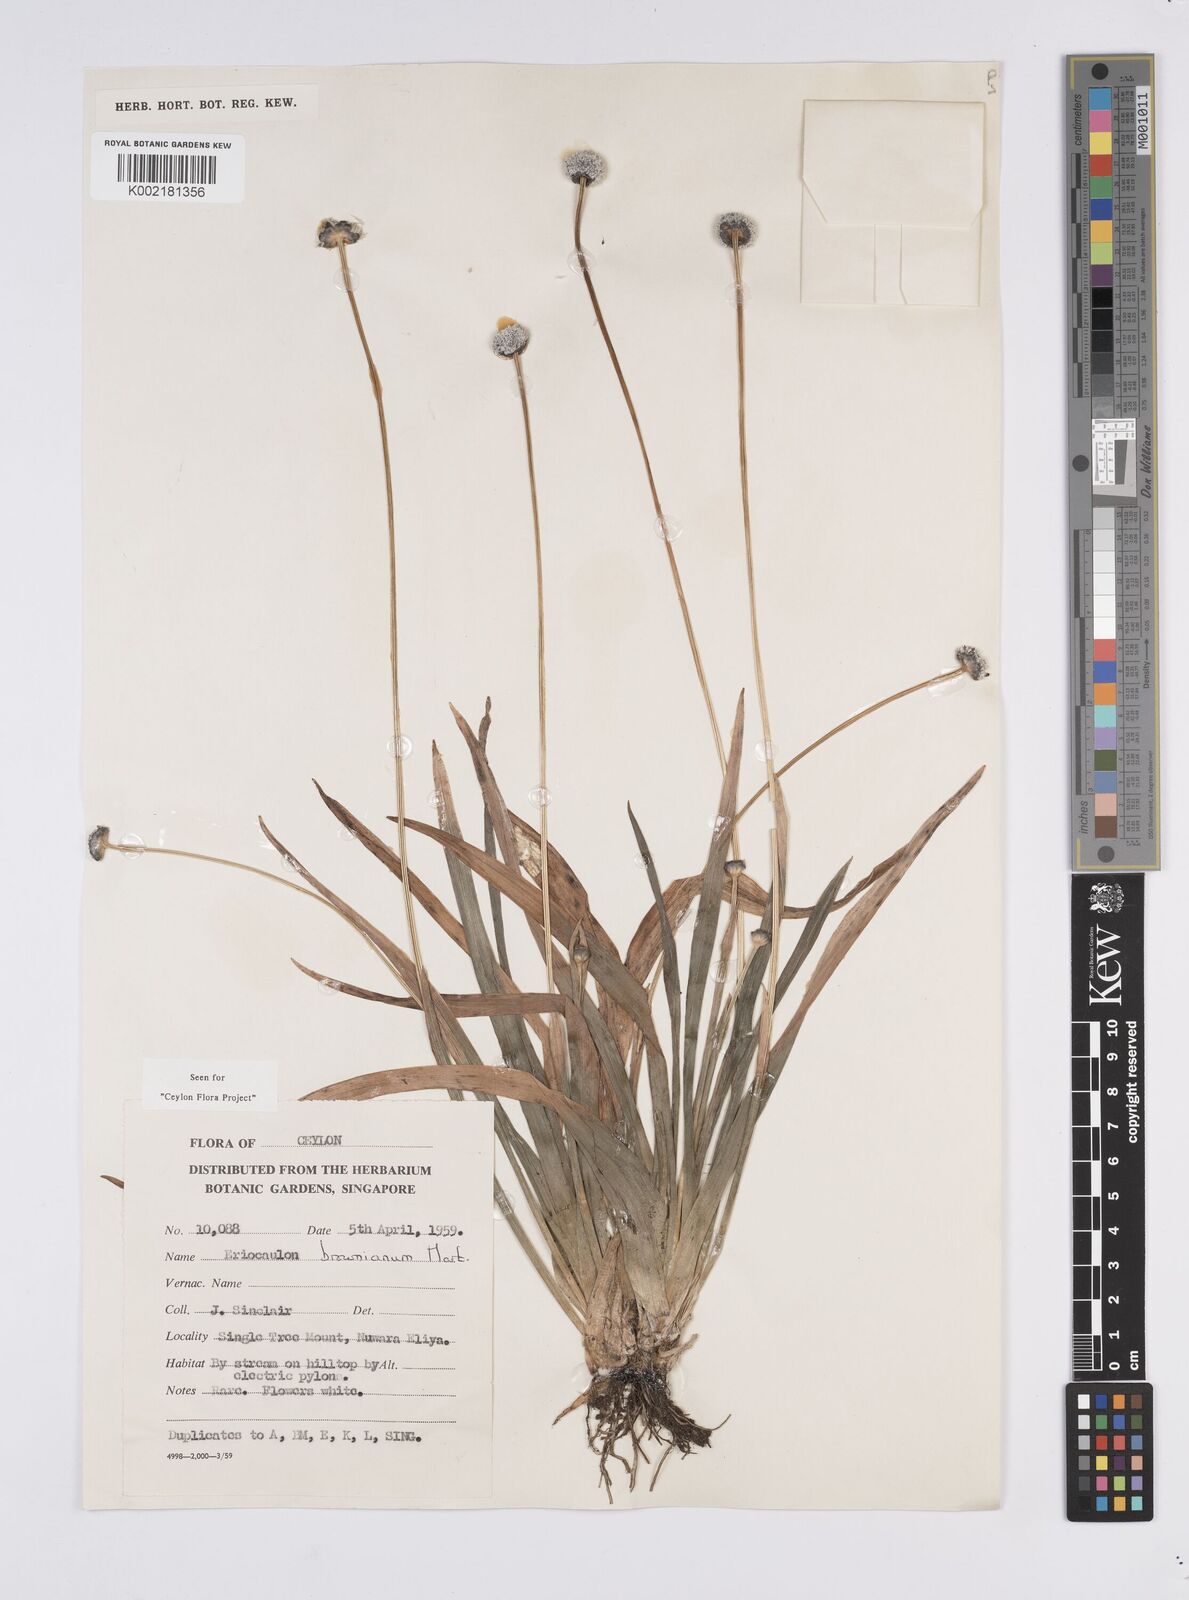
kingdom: Plantae
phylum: Tracheophyta
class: Liliopsida
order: Poales
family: Eriocaulaceae
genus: Eriocaulon
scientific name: Eriocaulon brownianum
